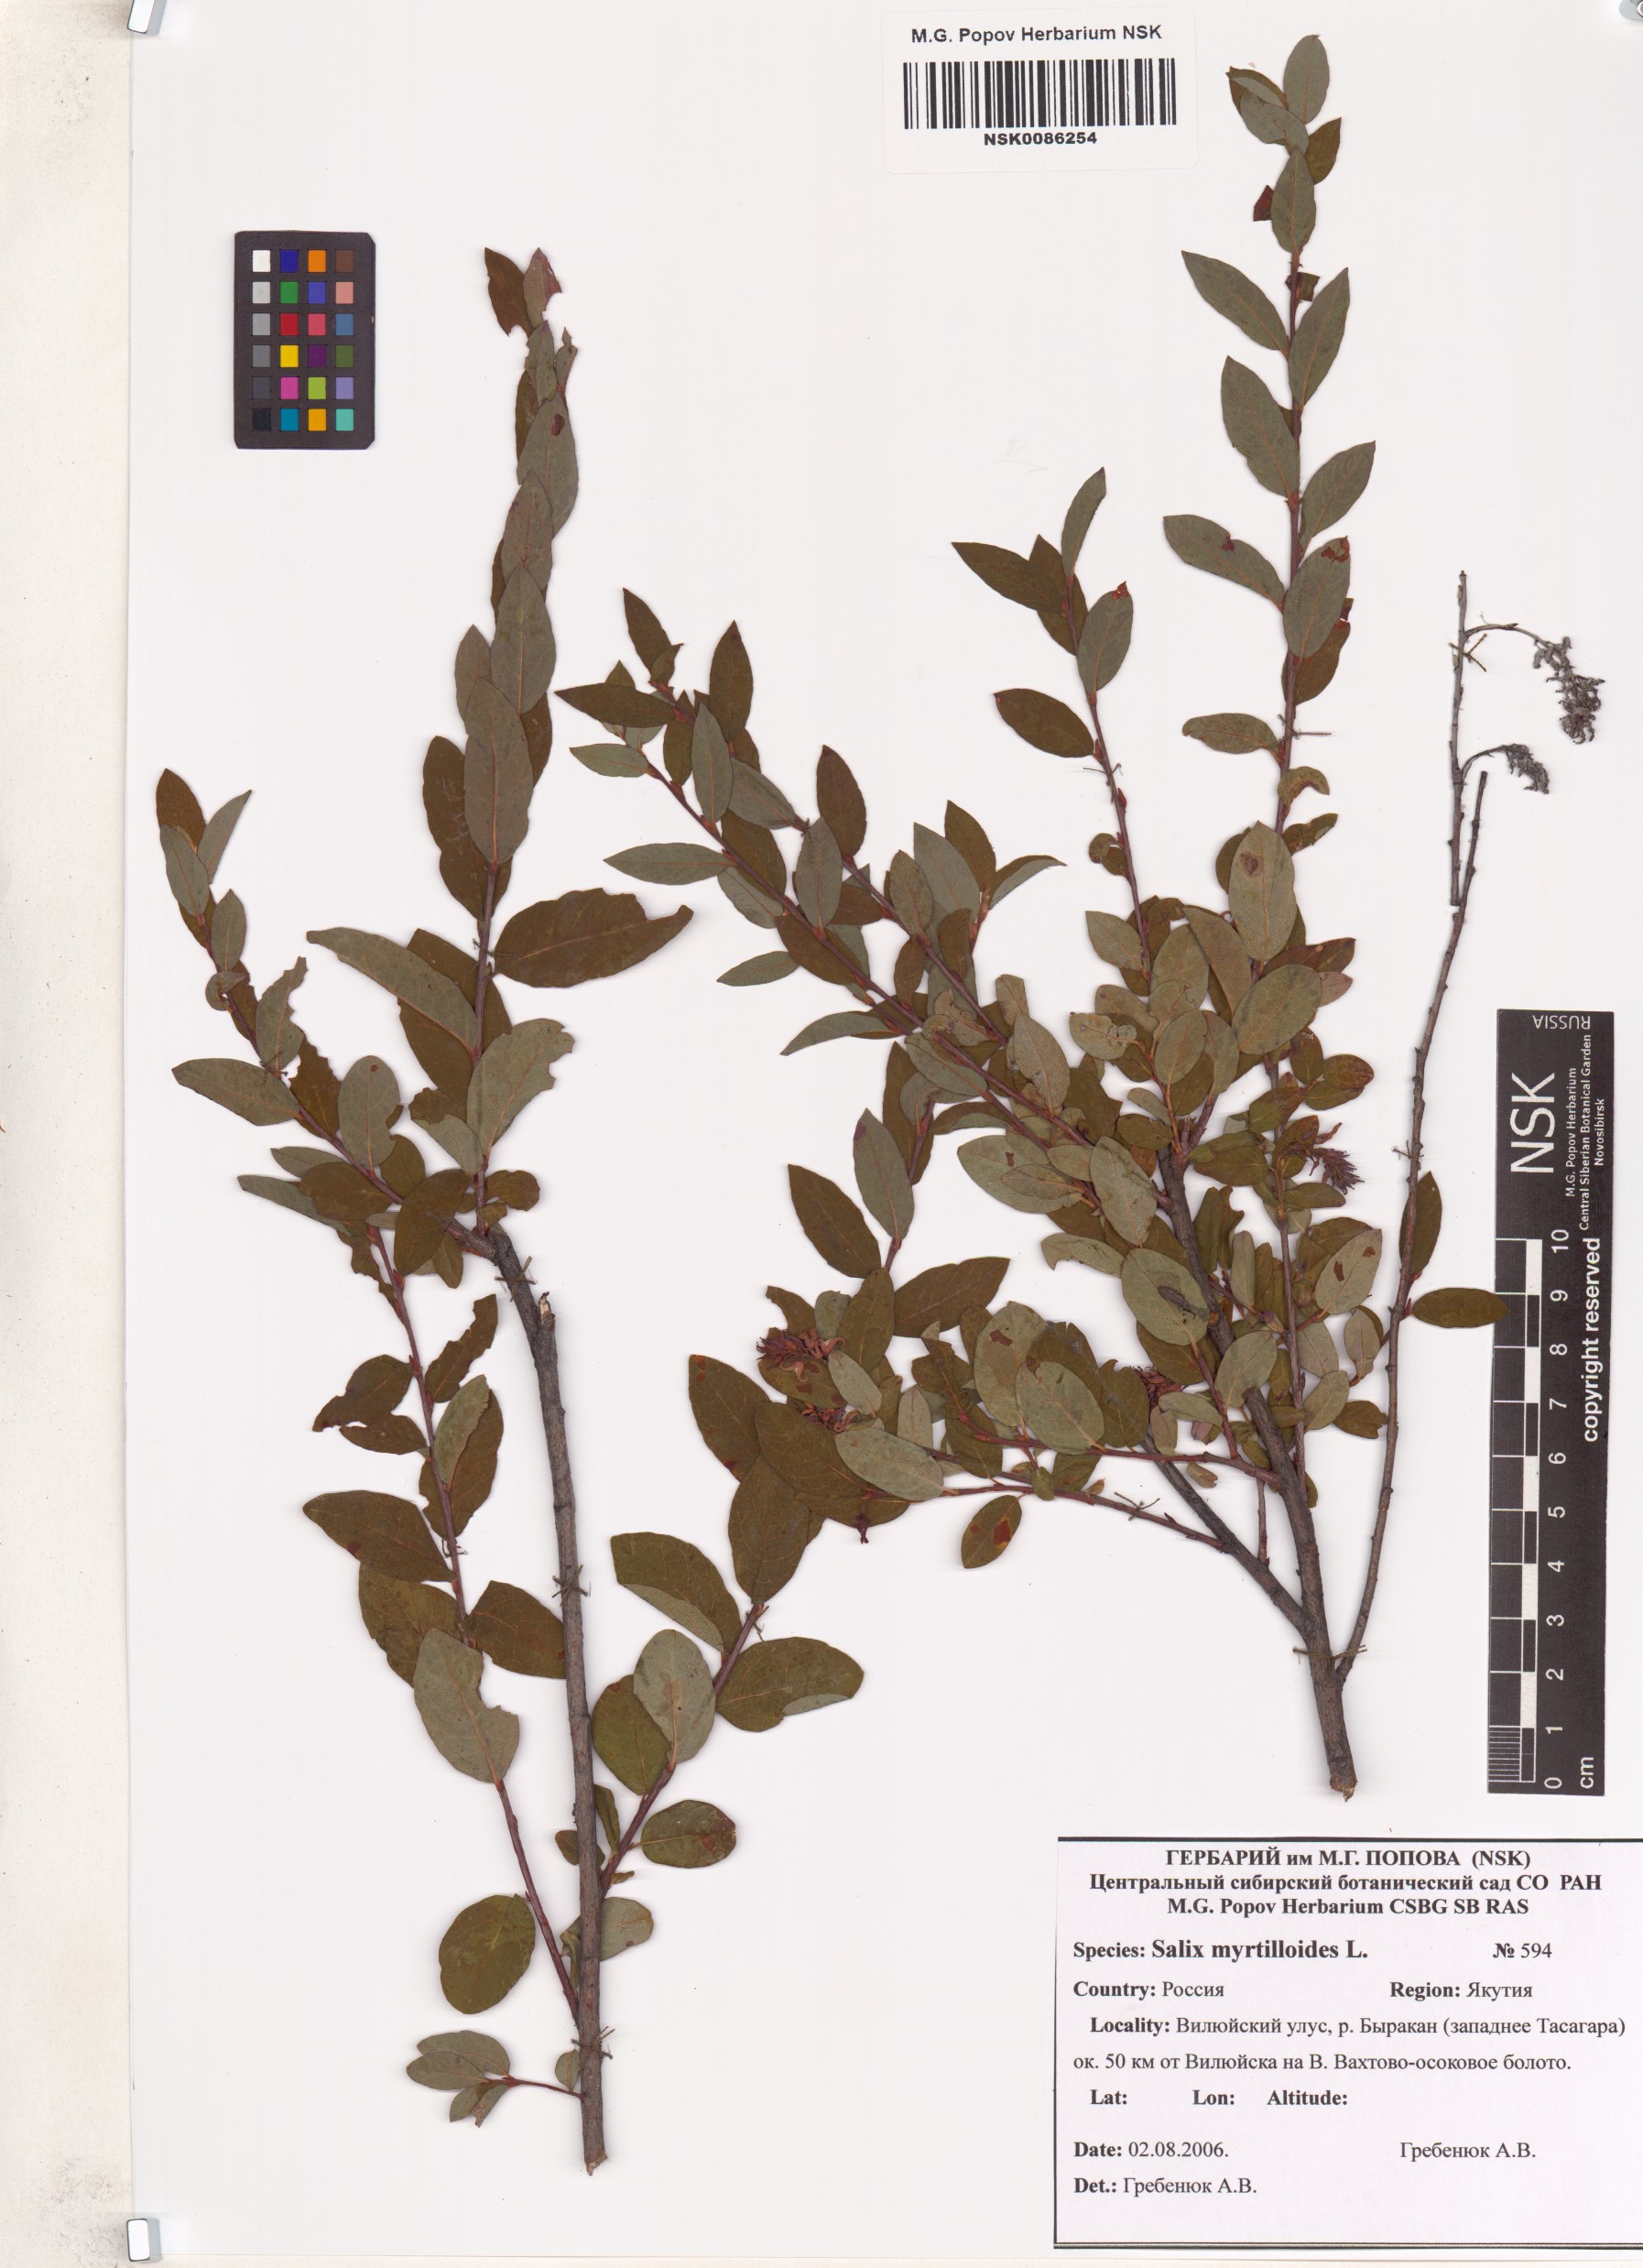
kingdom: Plantae
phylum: Tracheophyta
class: Magnoliopsida
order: Malpighiales
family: Salicaceae
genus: Salix
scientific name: Salix myrtilloides
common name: Myrtle-leaved willow
